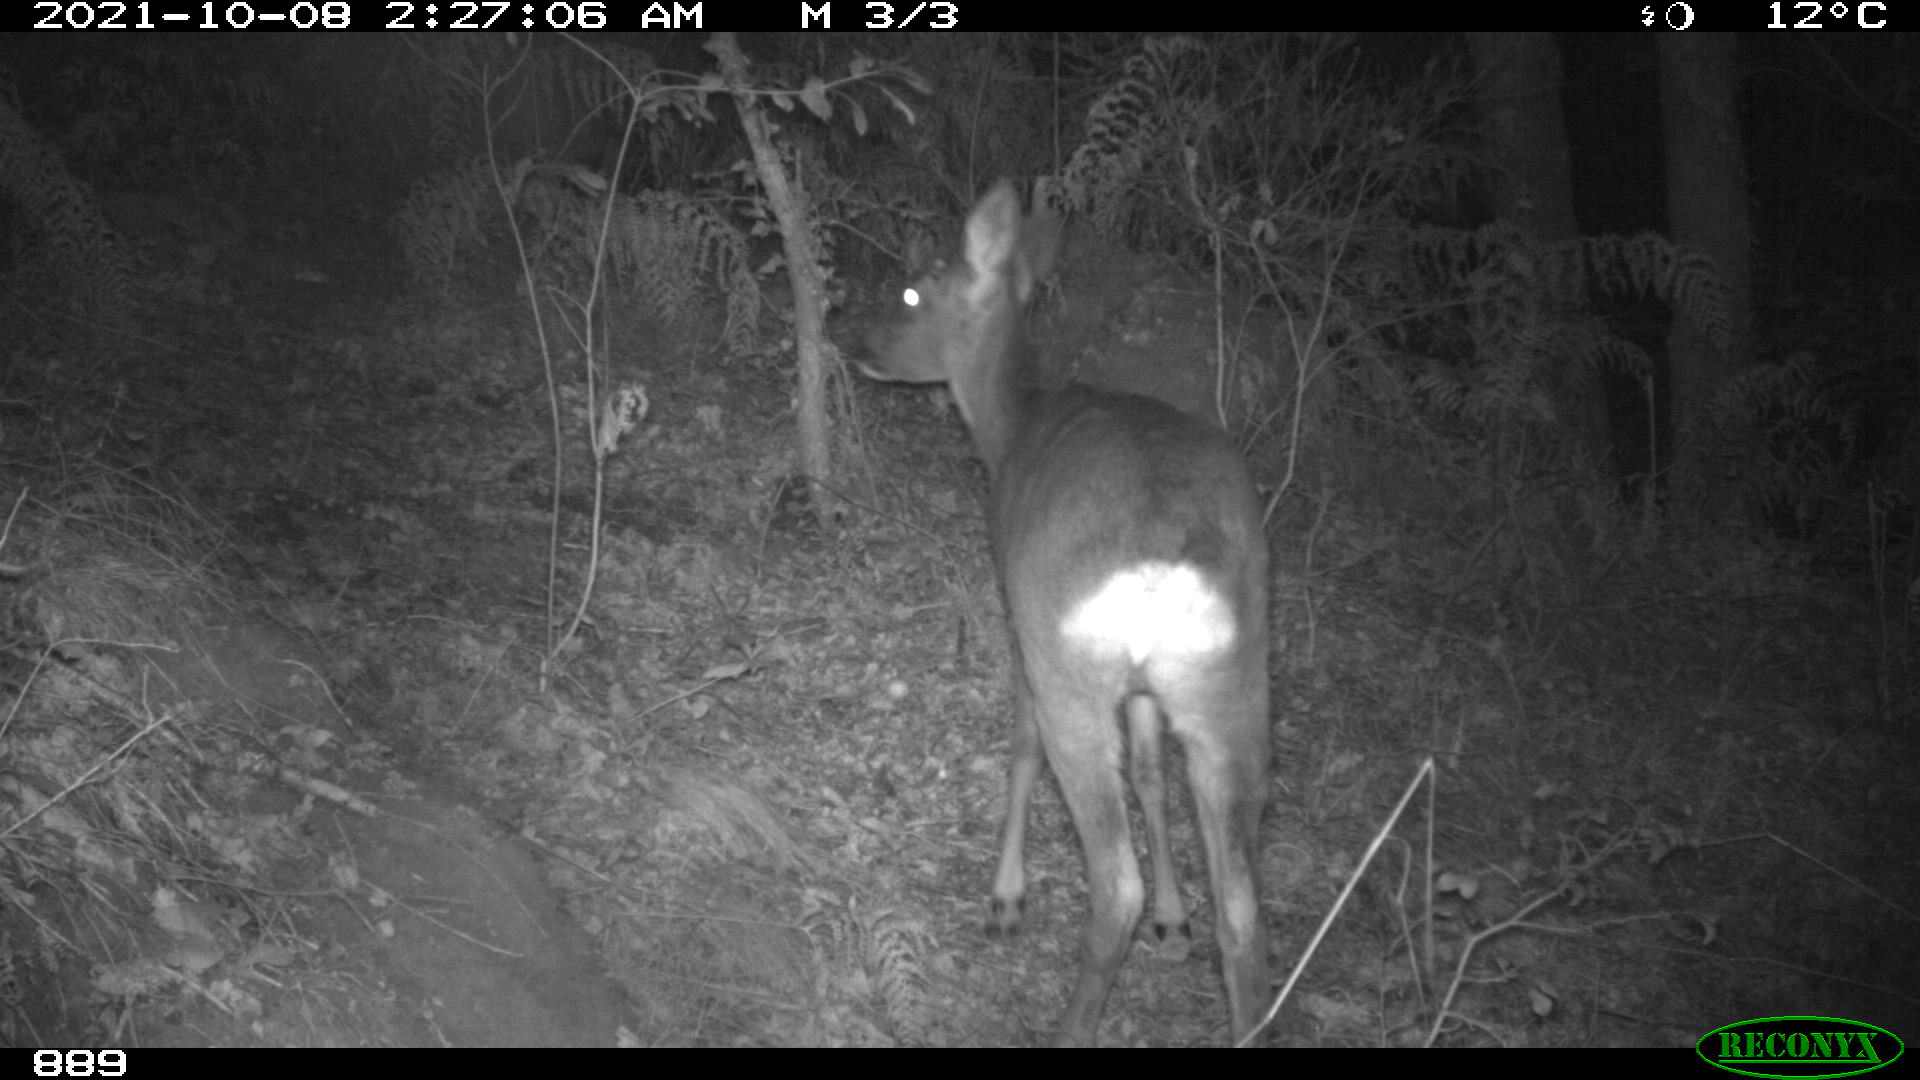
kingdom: Animalia
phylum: Chordata
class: Mammalia
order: Artiodactyla
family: Cervidae
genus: Capreolus
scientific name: Capreolus capreolus
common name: Western roe deer
